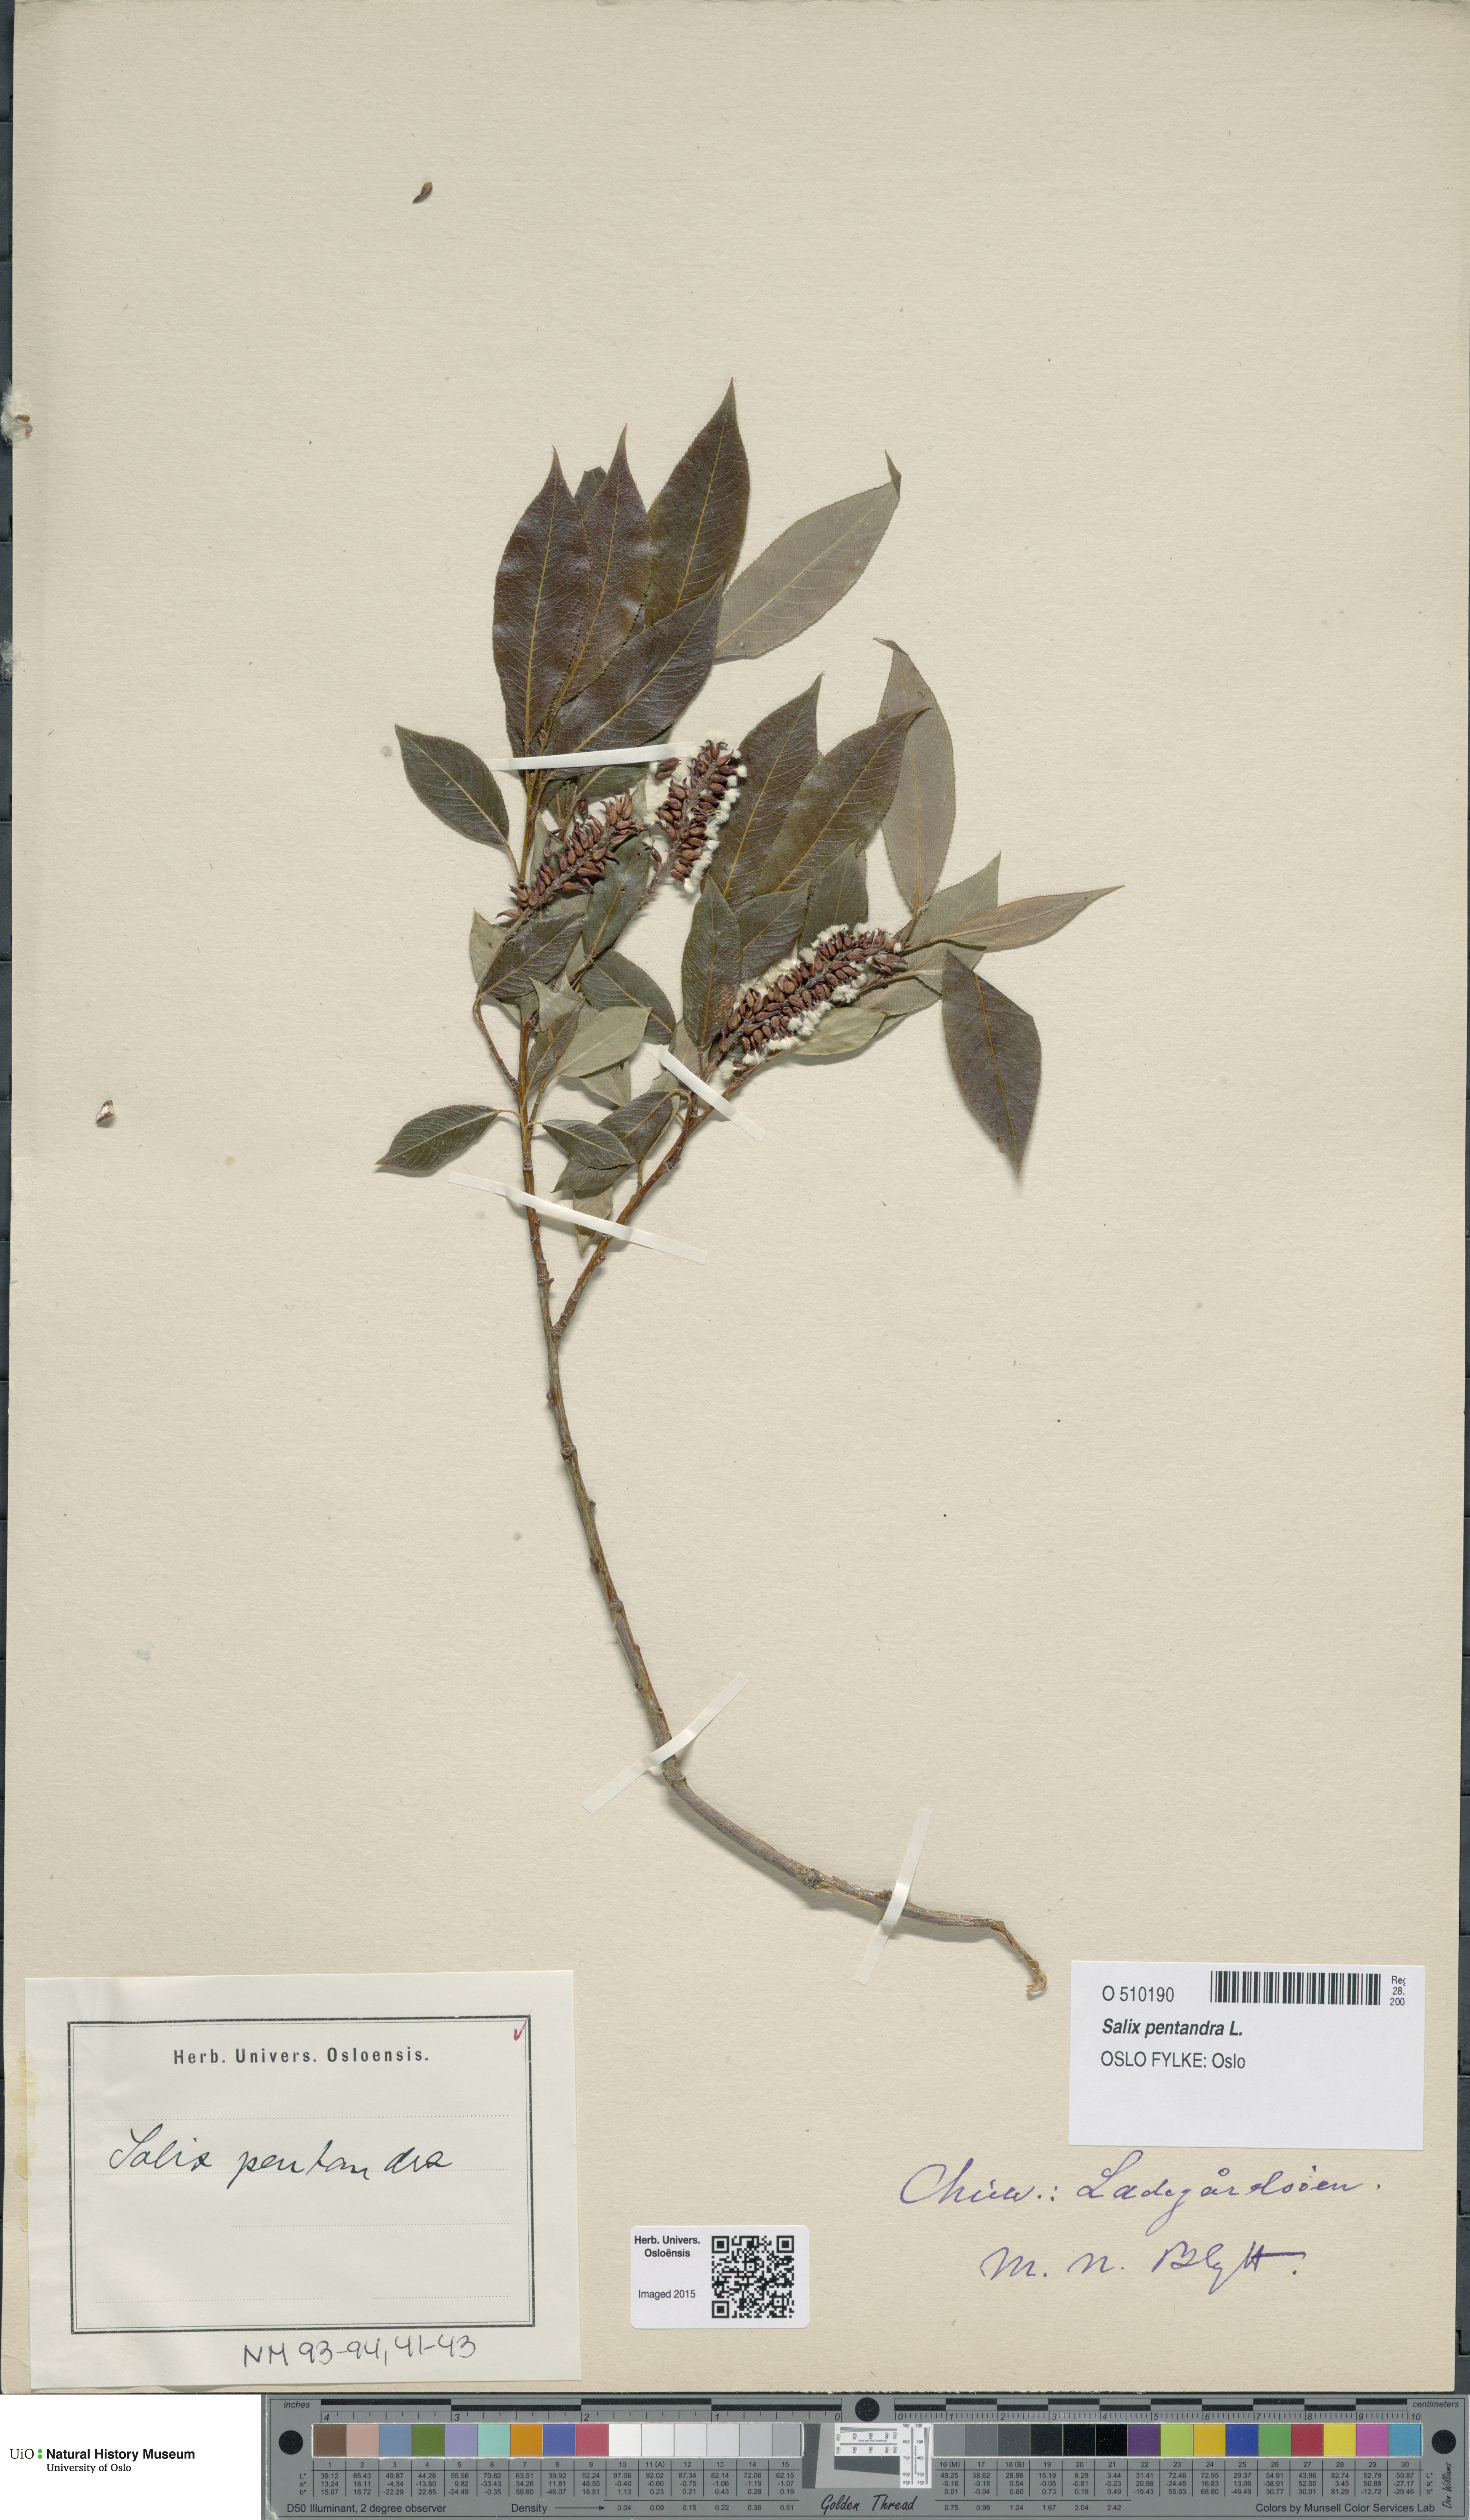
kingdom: Plantae
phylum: Tracheophyta
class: Magnoliopsida
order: Malpighiales
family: Salicaceae
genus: Salix
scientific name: Salix pentandra
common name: Bay willow
